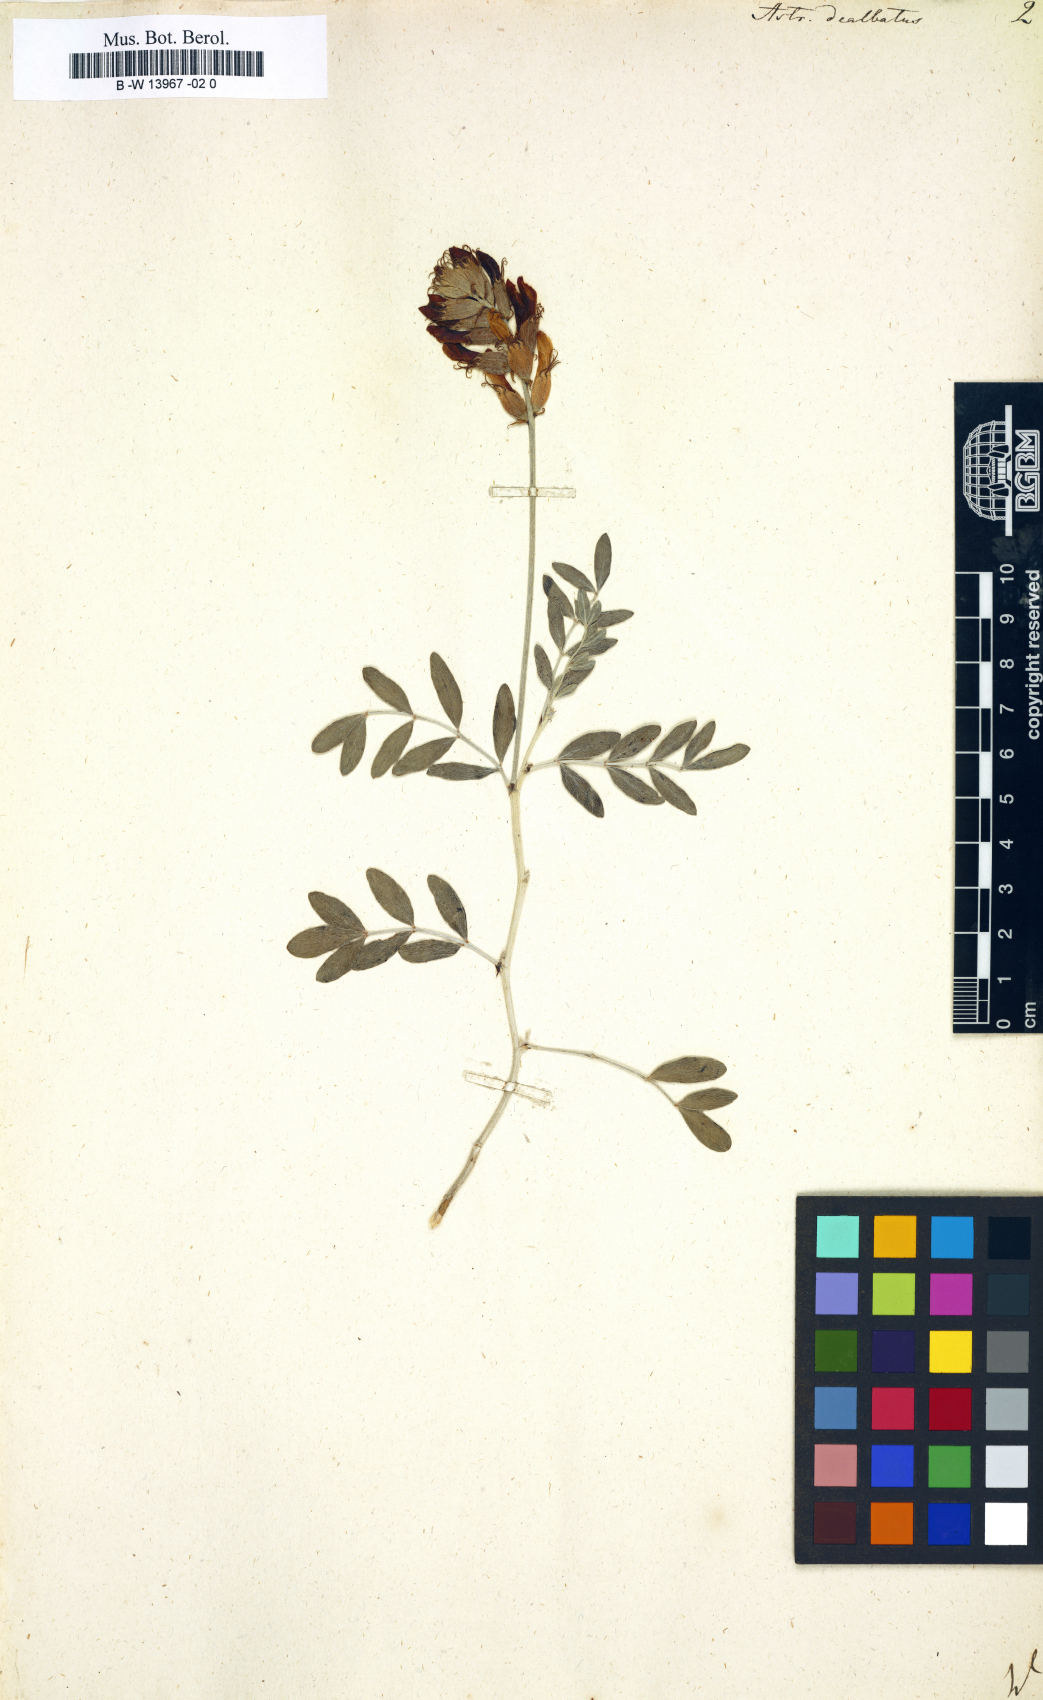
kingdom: Plantae
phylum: Tracheophyta
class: Magnoliopsida
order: Fabales
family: Fabaceae
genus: Astragalus
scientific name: Astragalus
